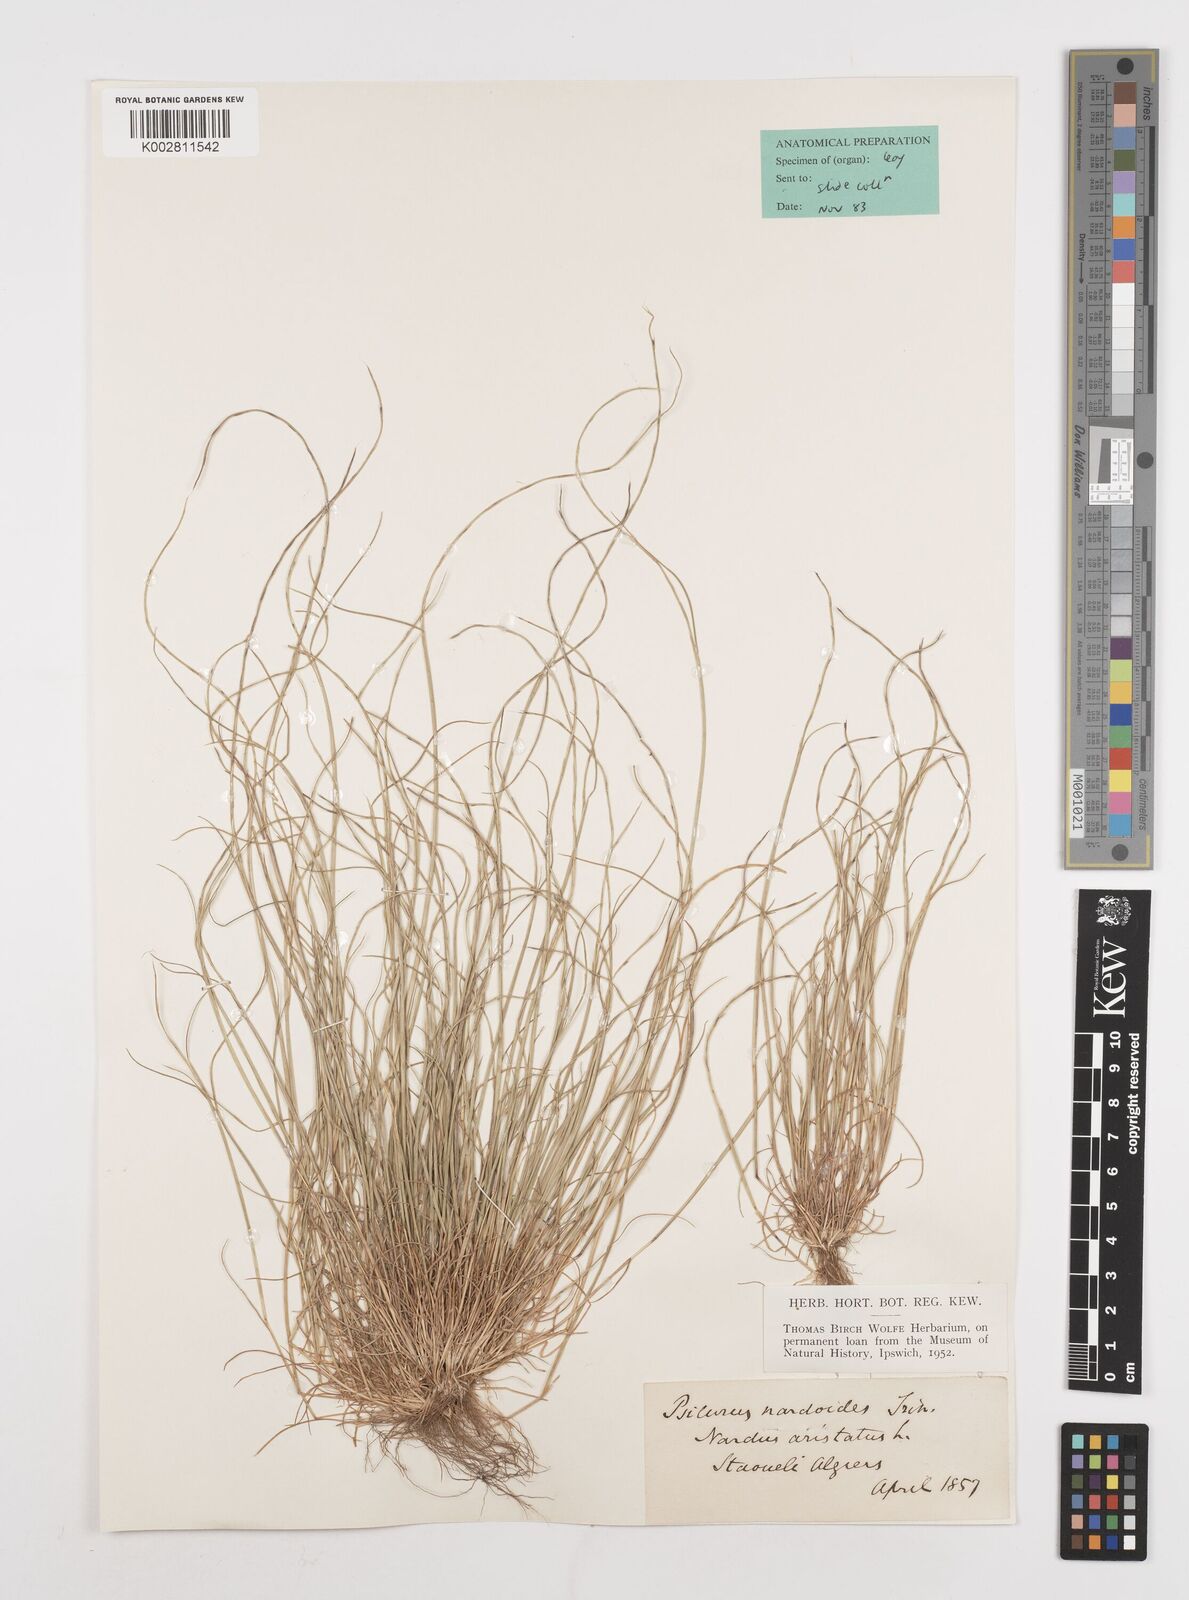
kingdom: Plantae
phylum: Tracheophyta
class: Liliopsida
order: Poales
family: Poaceae
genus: Festuca
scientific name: Festuca
